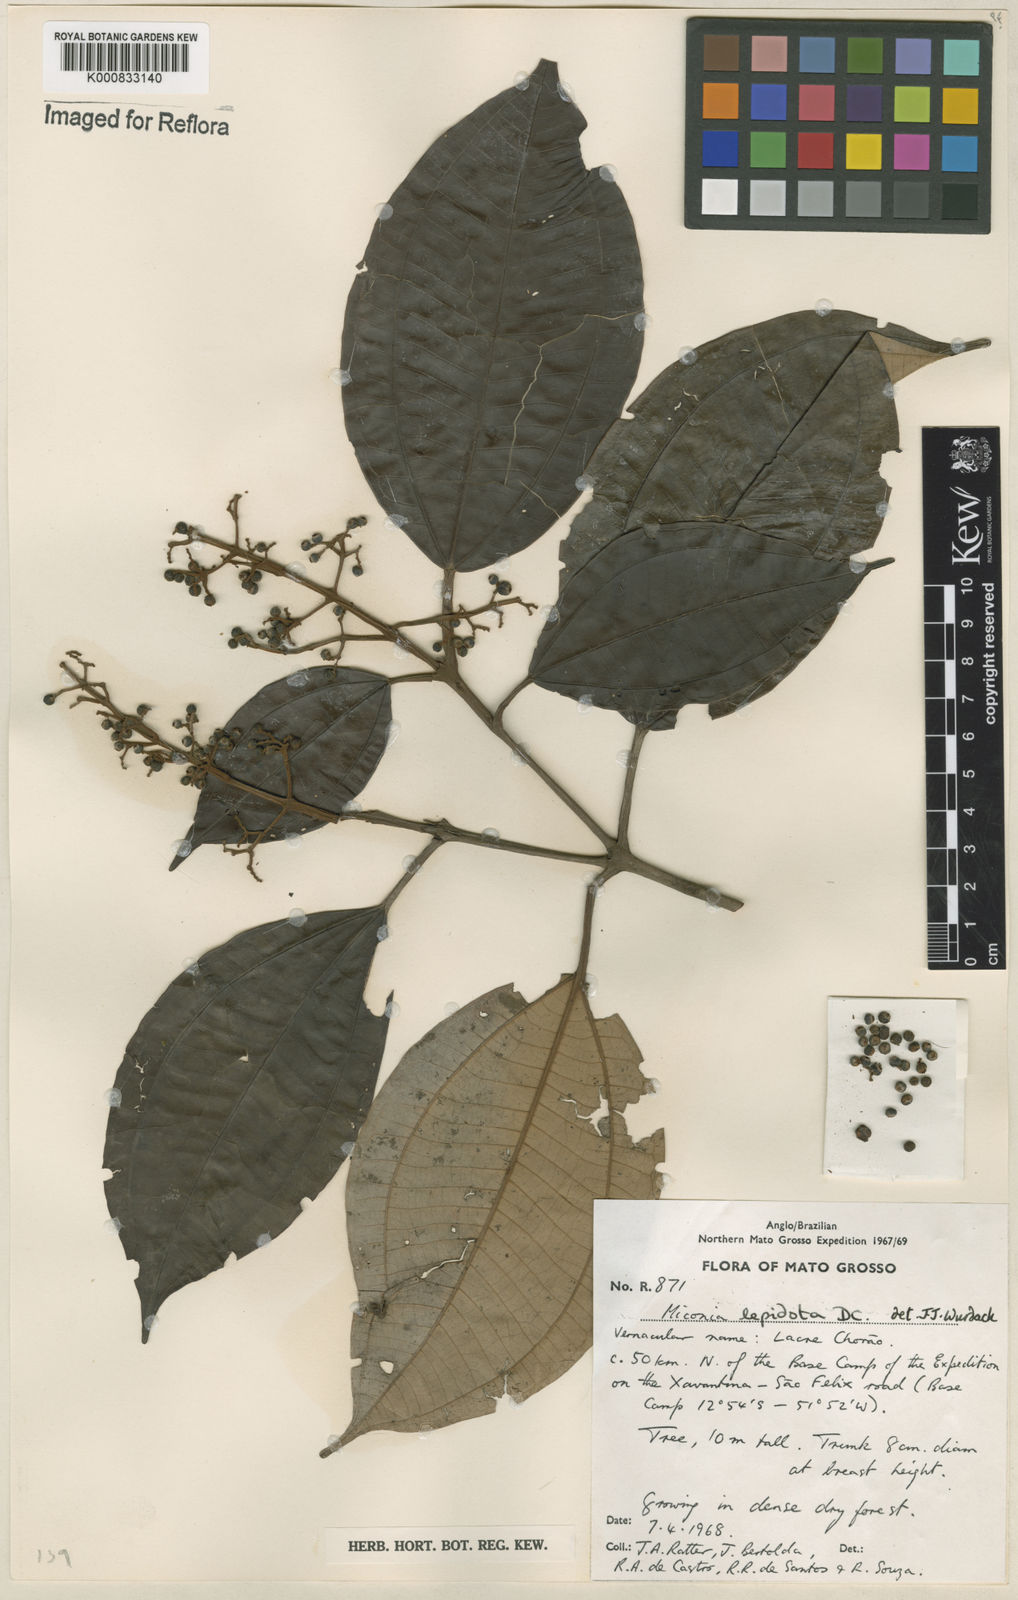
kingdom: Plantae
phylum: Tracheophyta
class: Magnoliopsida
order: Myrtales
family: Melastomataceae
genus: Miconia
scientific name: Miconia lepidota
